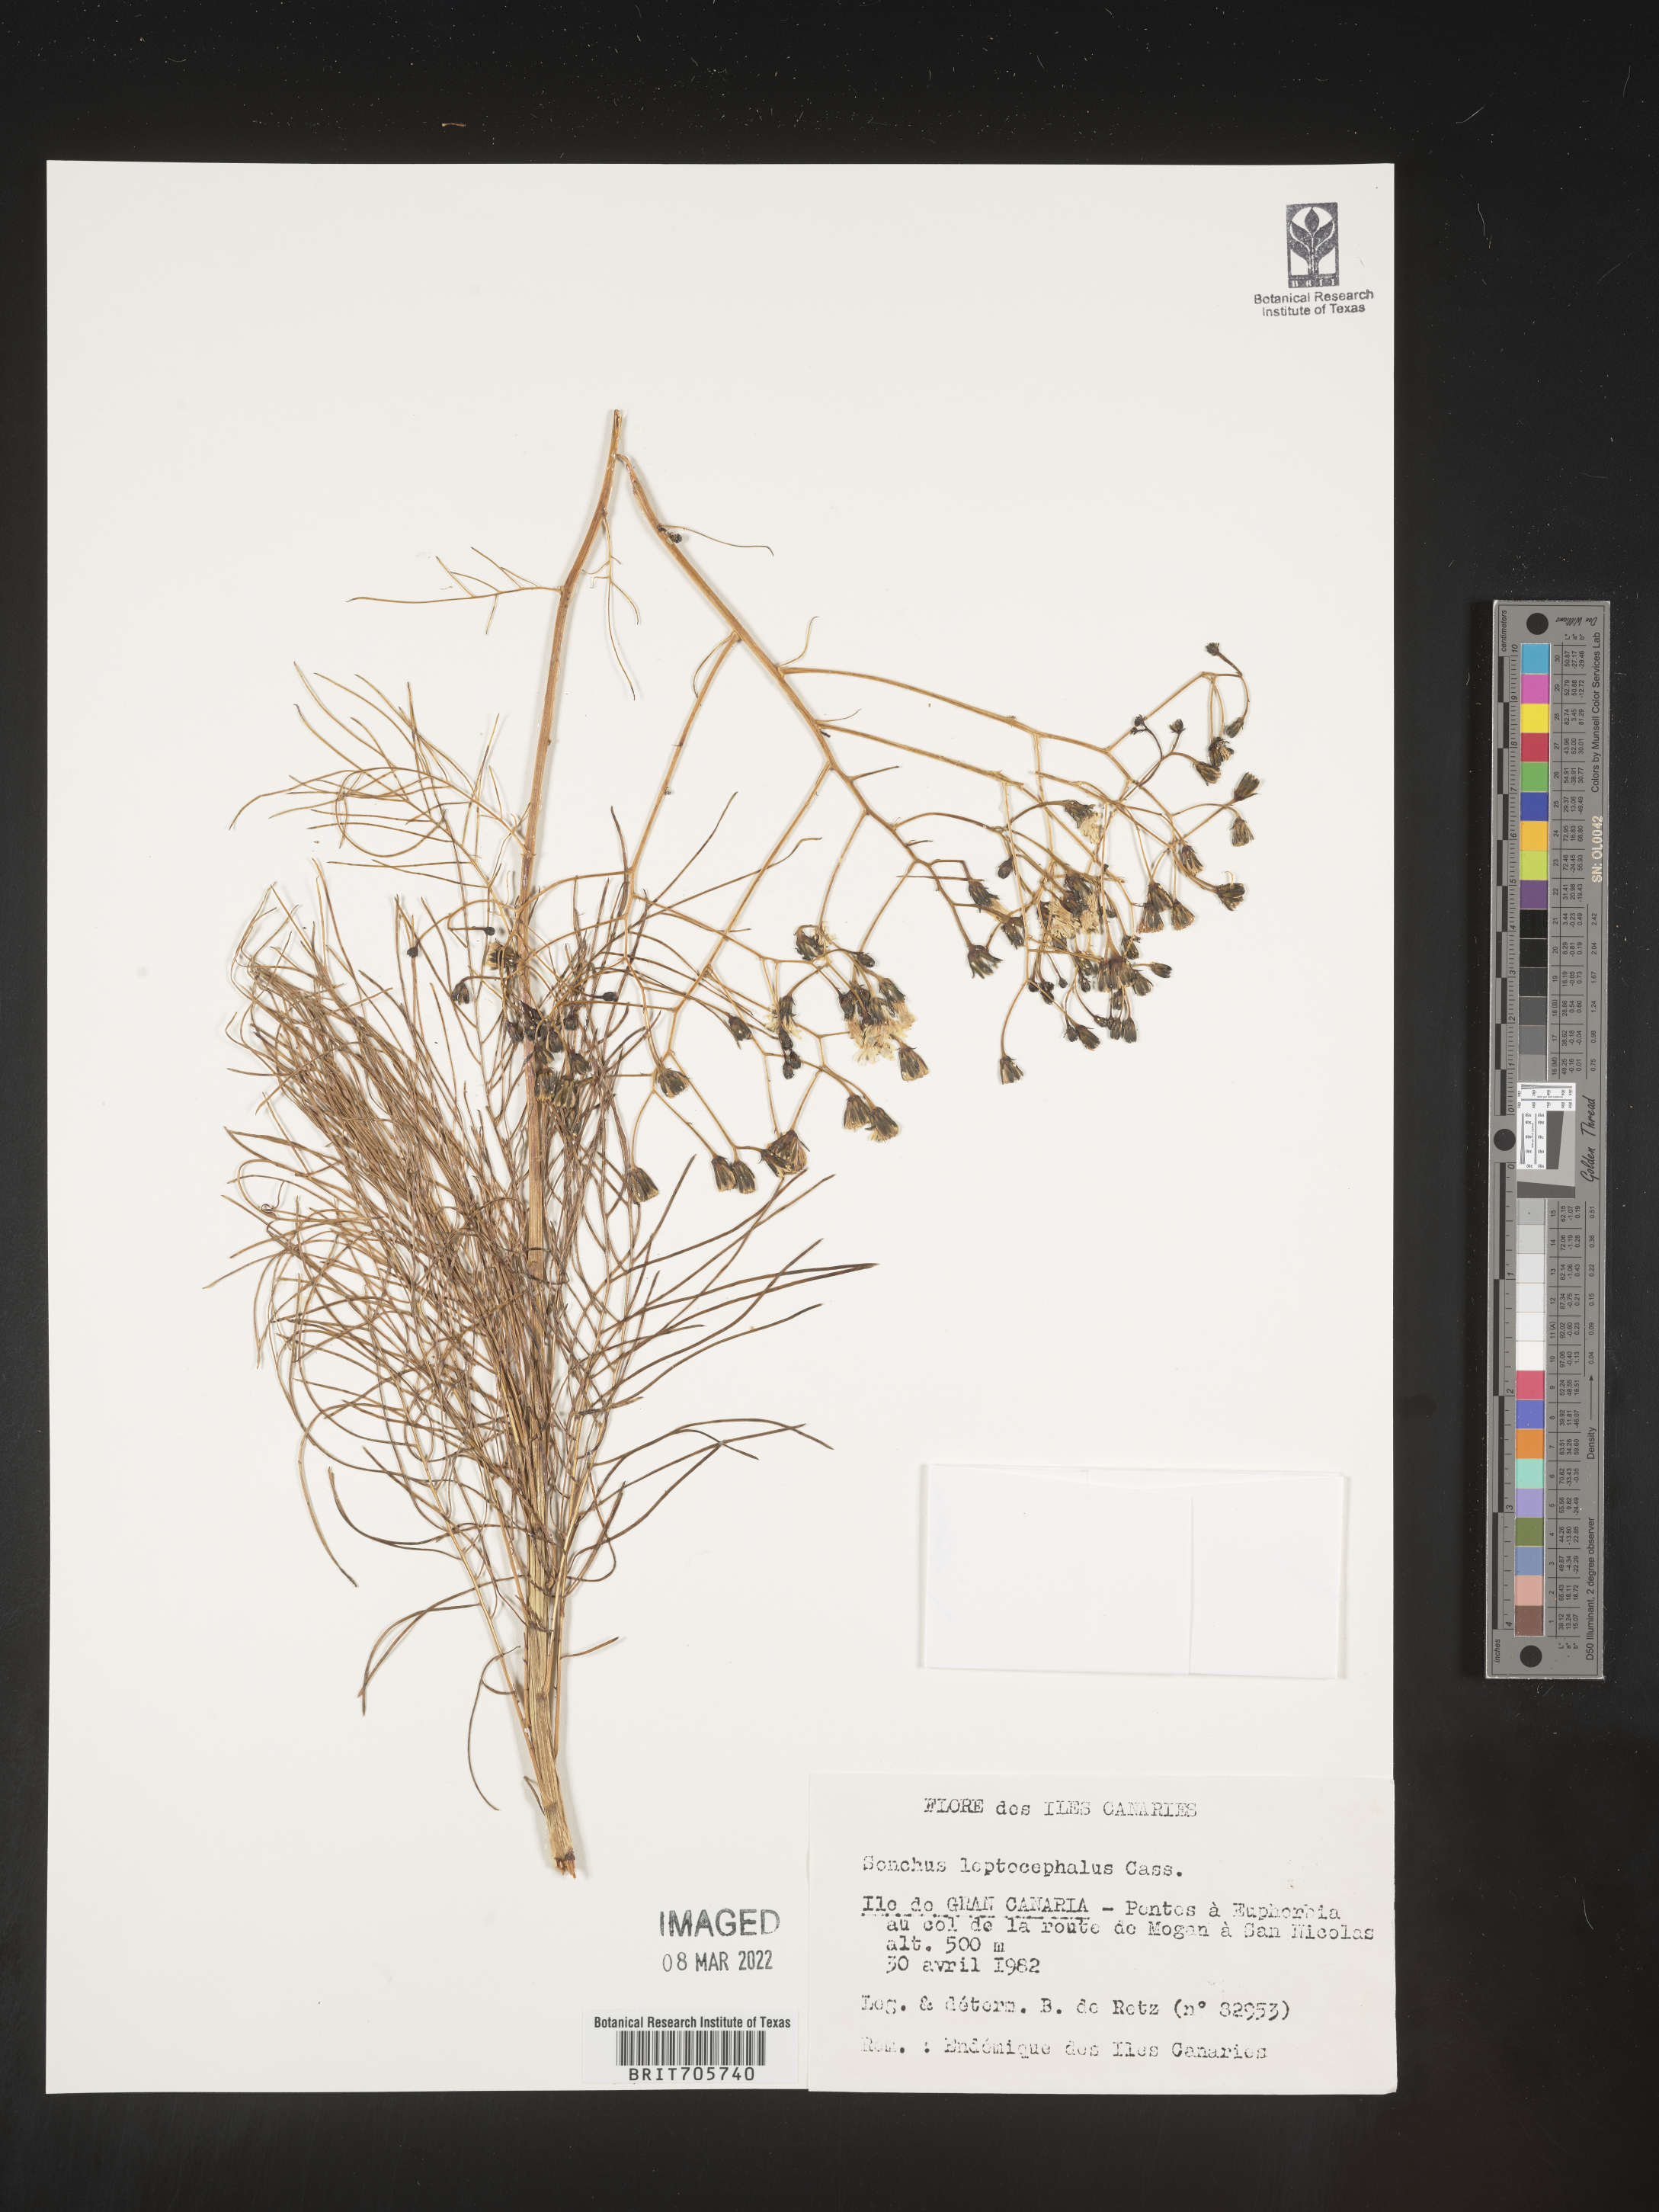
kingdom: Plantae
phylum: Tracheophyta
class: Magnoliopsida
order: Asterales
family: Asteraceae
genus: Sonchus
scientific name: Sonchus
